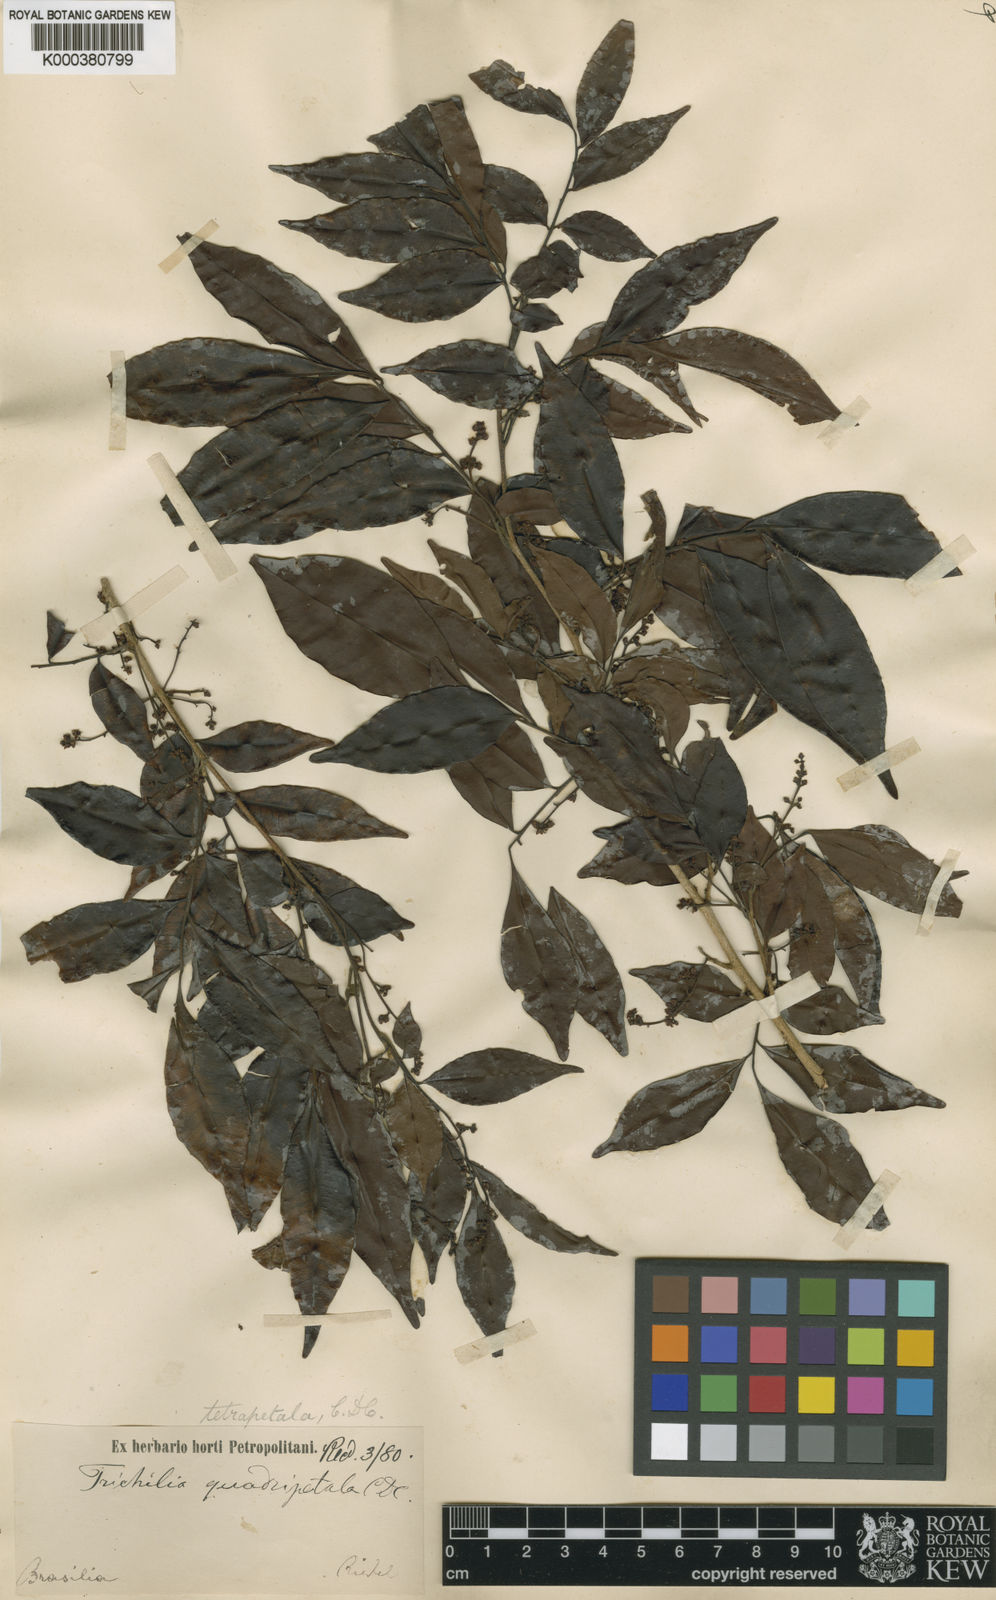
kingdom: Plantae
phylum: Tracheophyta
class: Magnoliopsida
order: Sapindales
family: Meliaceae
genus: Trichilia
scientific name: Trichilia tetrapetala
